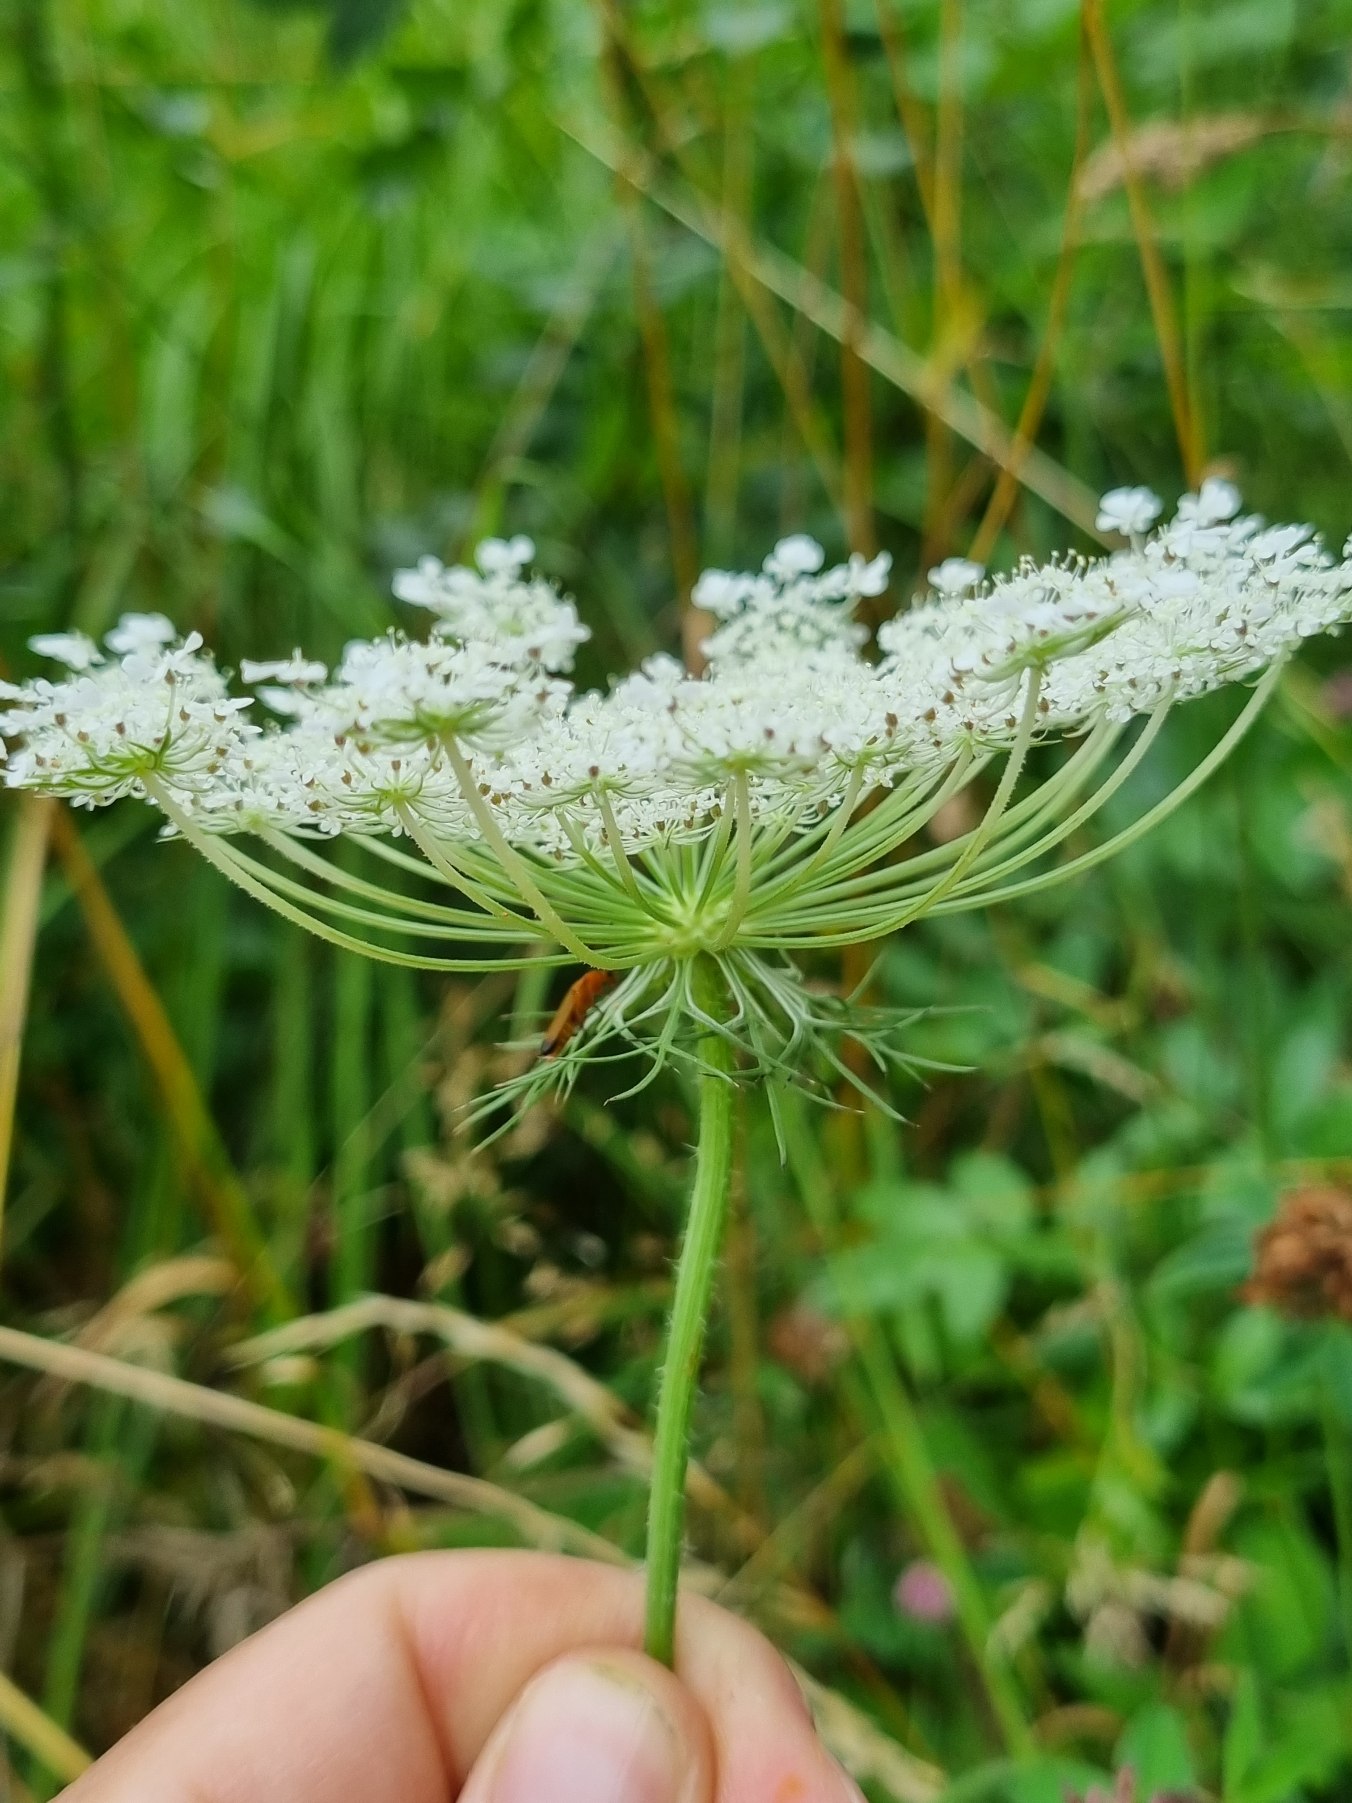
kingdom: Plantae
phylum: Tracheophyta
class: Magnoliopsida
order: Apiales
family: Apiaceae
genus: Daucus
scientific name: Daucus carota
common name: Vild gulerod
